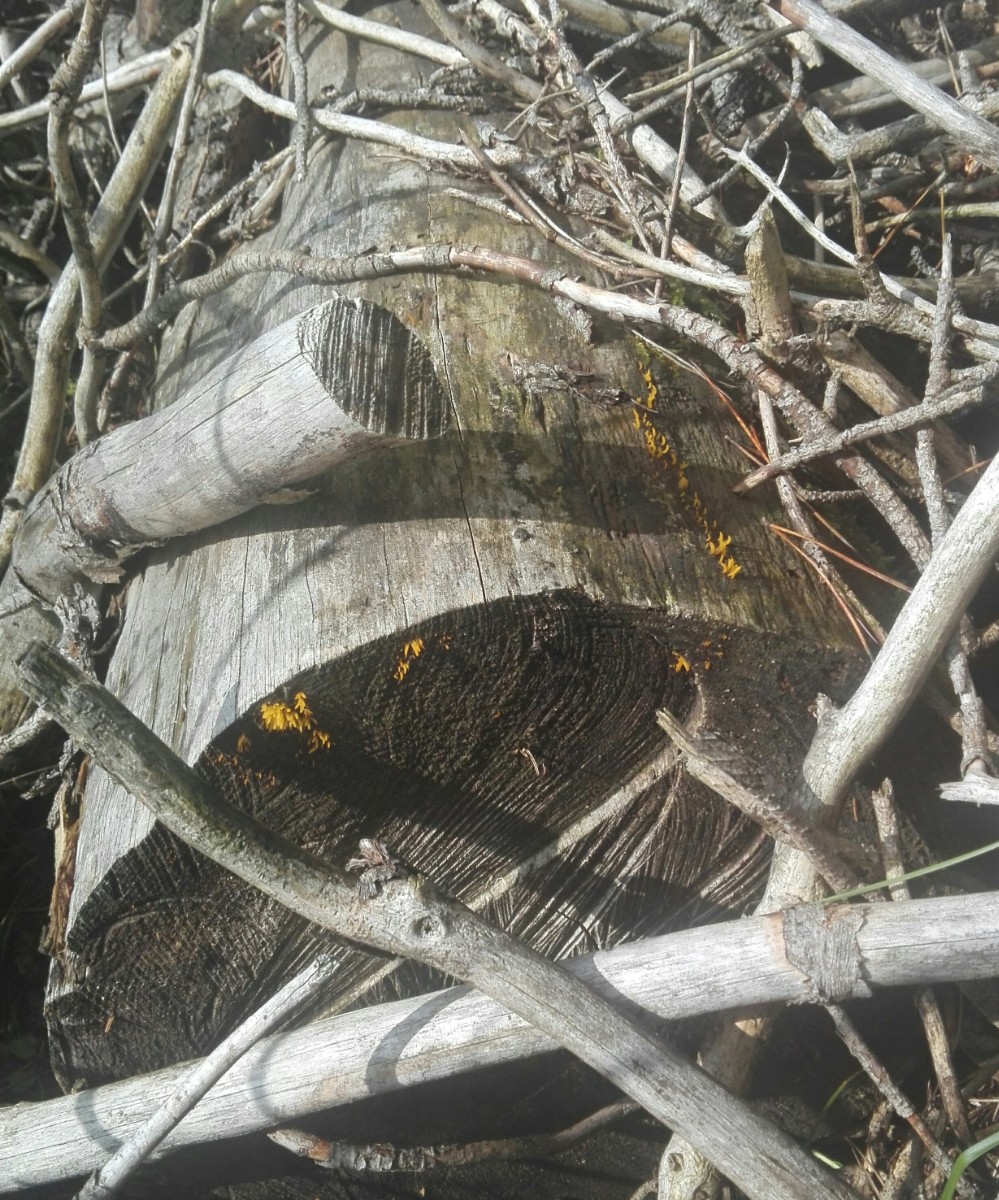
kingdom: Fungi
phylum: Basidiomycota
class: Dacrymycetes
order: Dacrymycetales
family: Dacrymycetaceae
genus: Calocera
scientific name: Calocera
